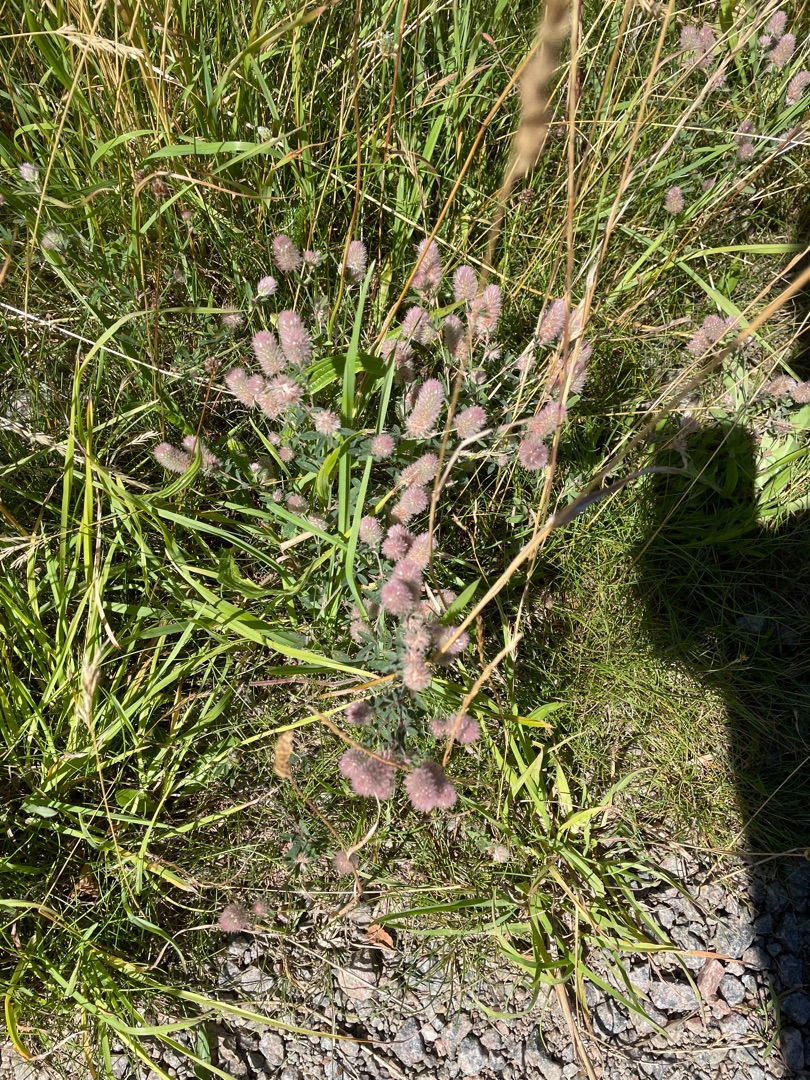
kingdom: Plantae
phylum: Tracheophyta
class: Magnoliopsida
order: Fabales
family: Fabaceae
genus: Trifolium
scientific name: Trifolium arvense
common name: Hare-kløver
